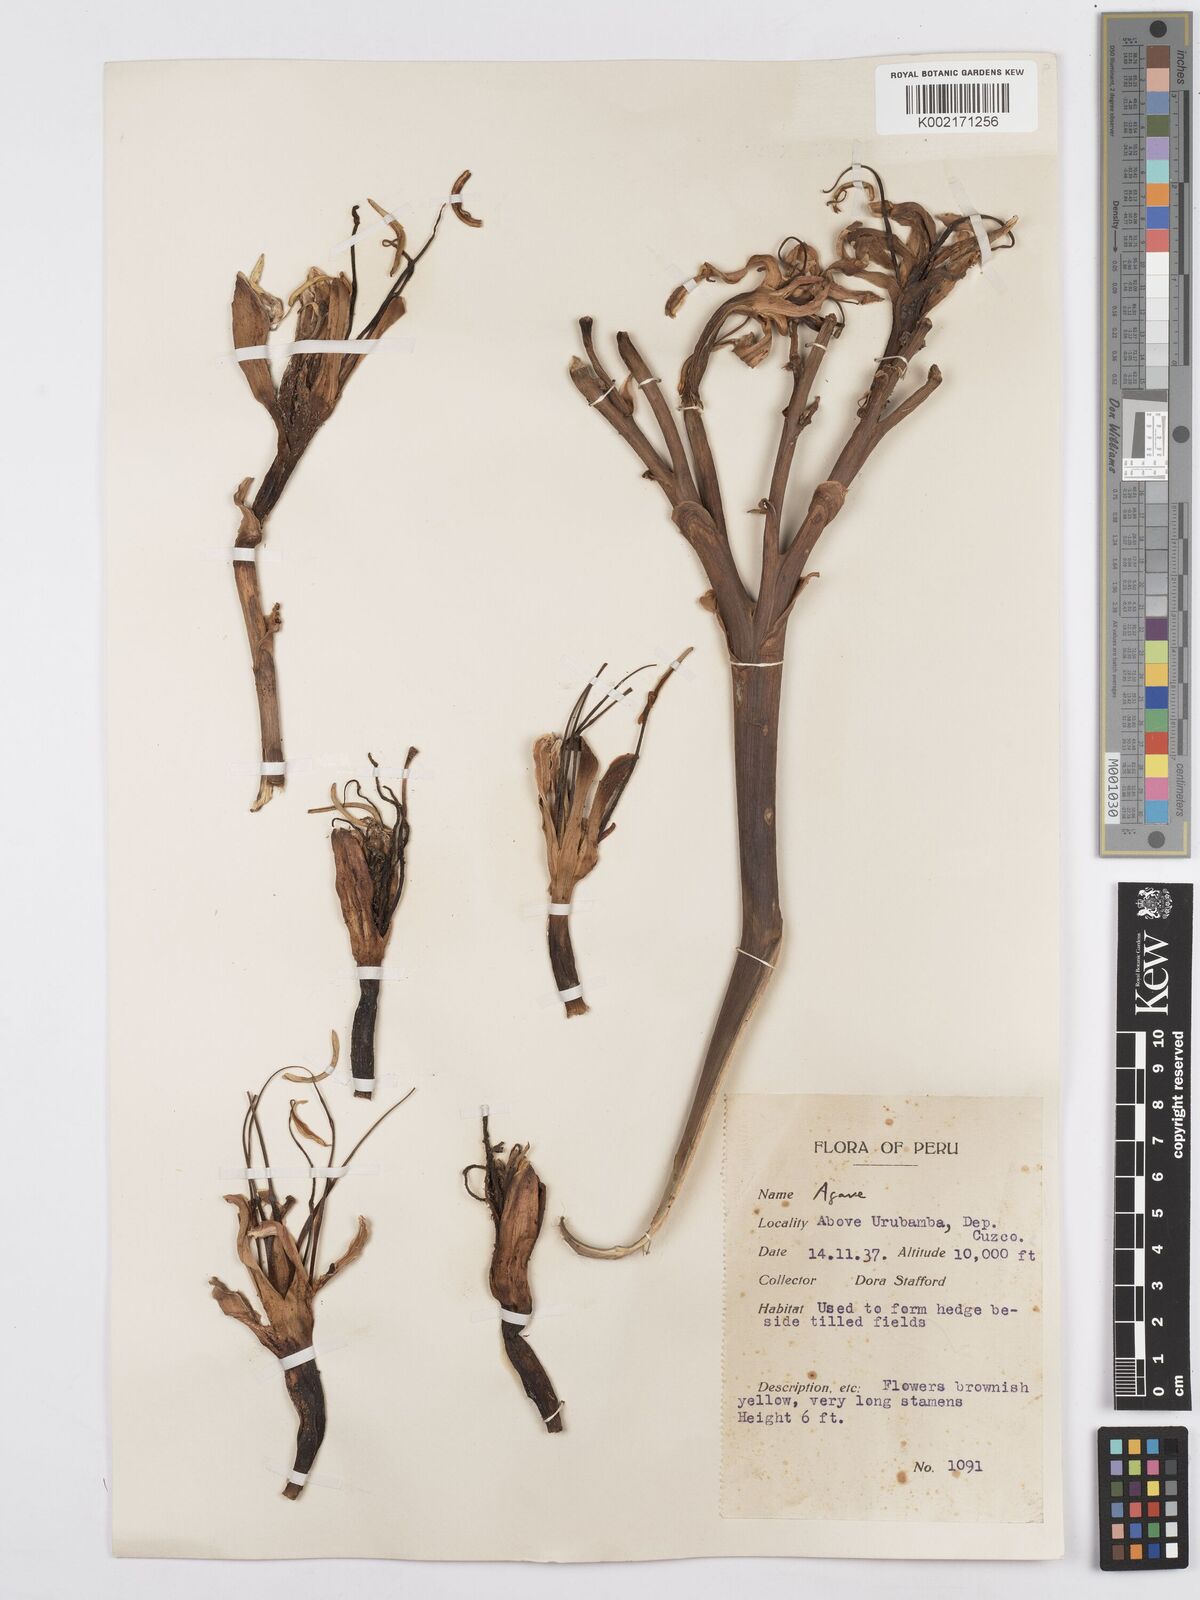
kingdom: Plantae
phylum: Tracheophyta
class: Liliopsida
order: Asparagales
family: Asparagaceae
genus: Agave
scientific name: Agave
